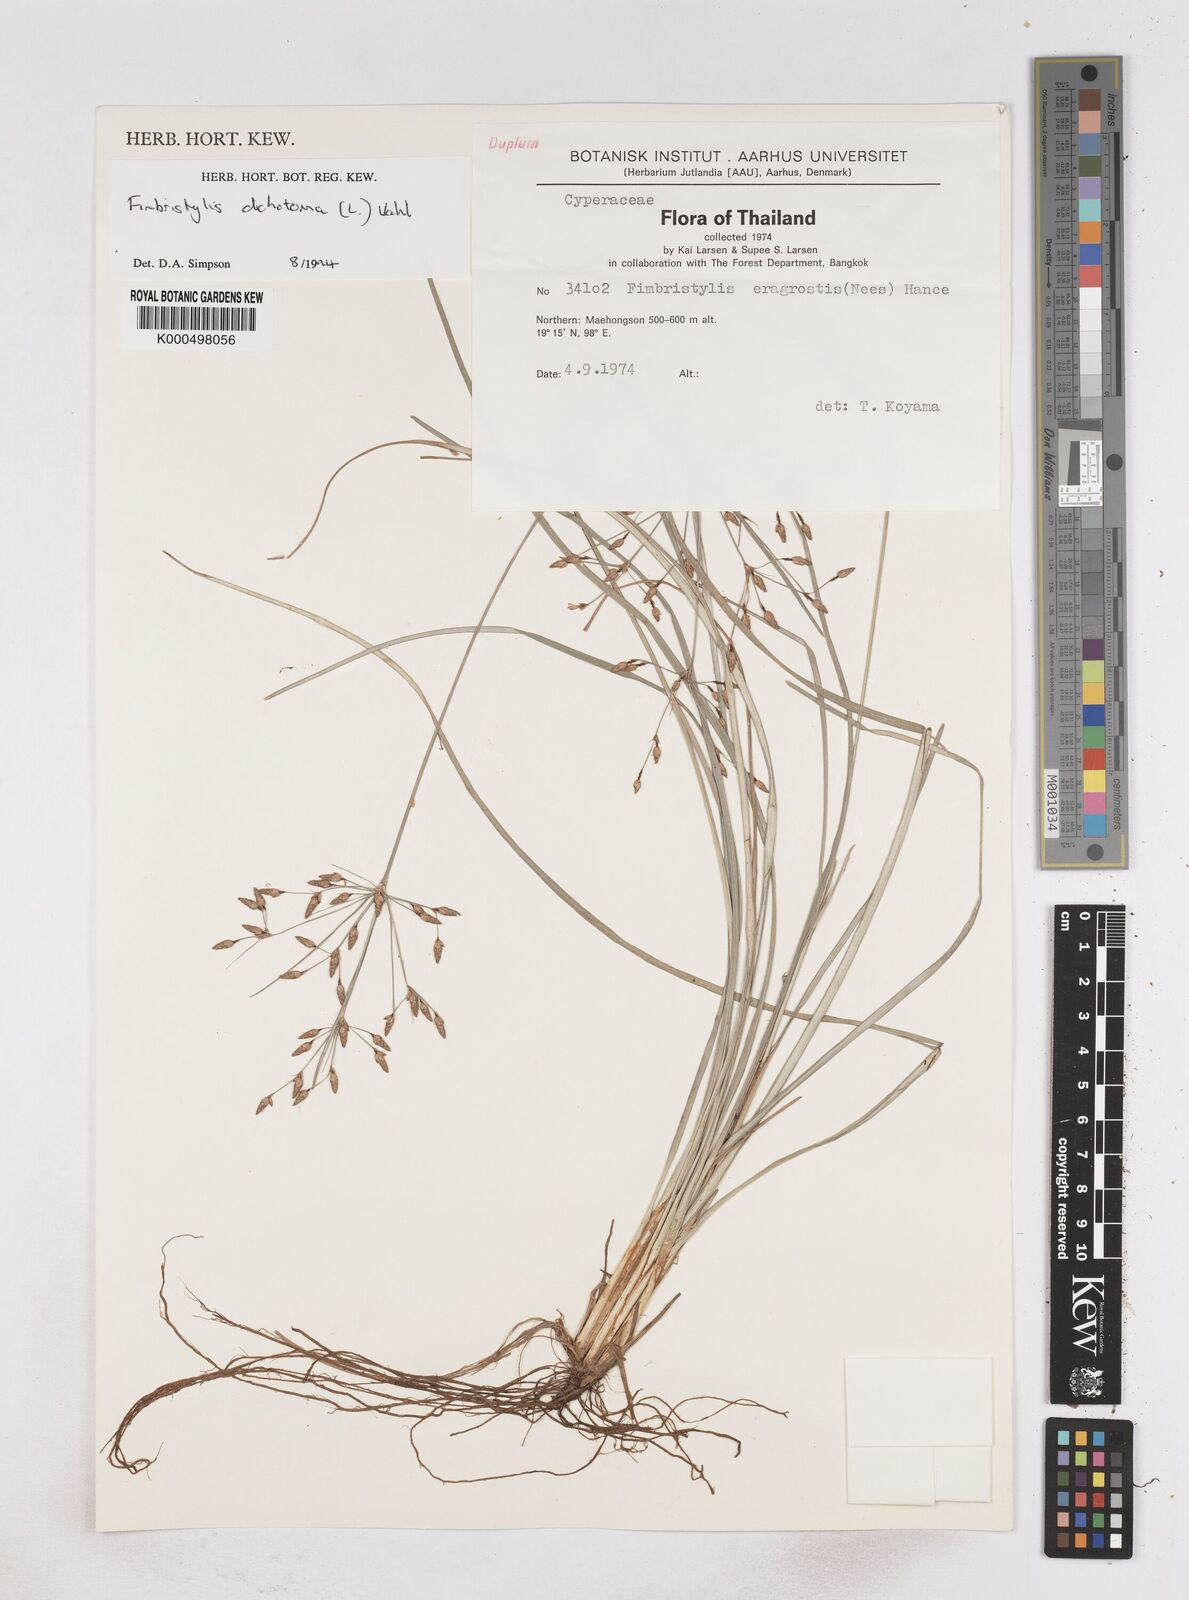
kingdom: Plantae
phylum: Tracheophyta
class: Liliopsida
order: Poales
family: Cyperaceae
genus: Fimbristylis
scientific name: Fimbristylis dichotoma
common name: Forked fimbry
